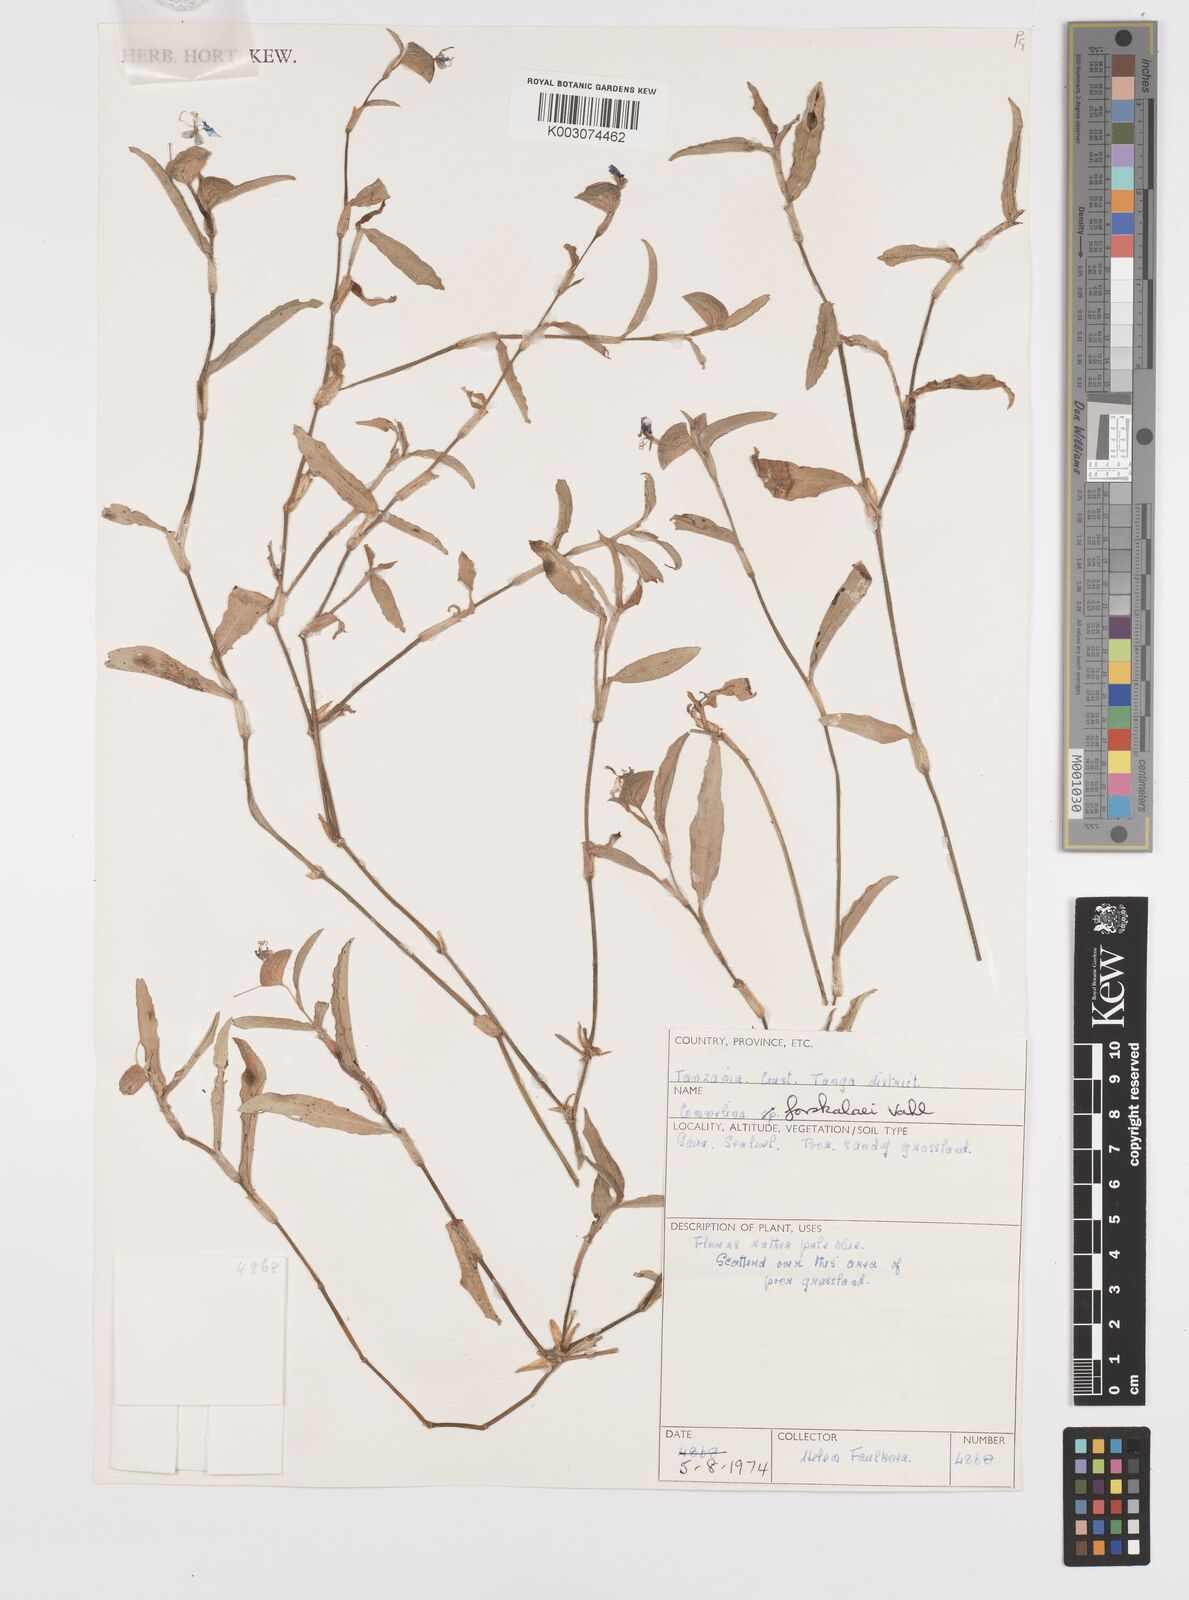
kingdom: Plantae
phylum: Tracheophyta
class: Liliopsida
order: Commelinales
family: Commelinaceae
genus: Commelina
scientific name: Commelina forskaolii
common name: Rat's ear
